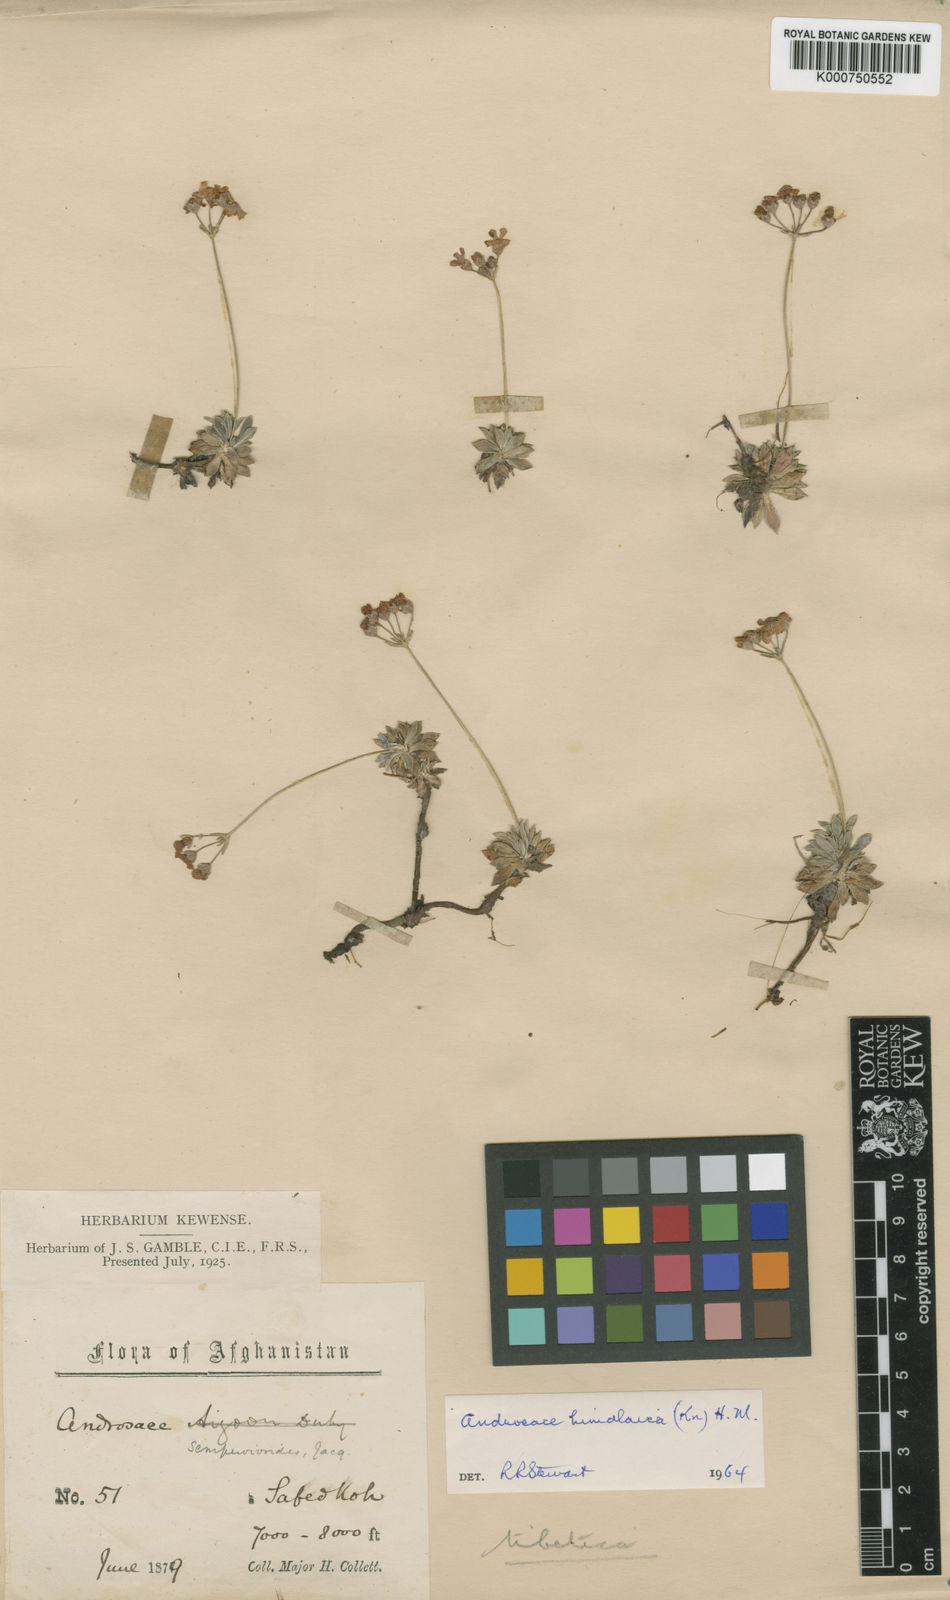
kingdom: Plantae
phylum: Tracheophyta
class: Magnoliopsida
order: Ericales
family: Primulaceae
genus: Androsace
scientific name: Androsace sempervivoides
